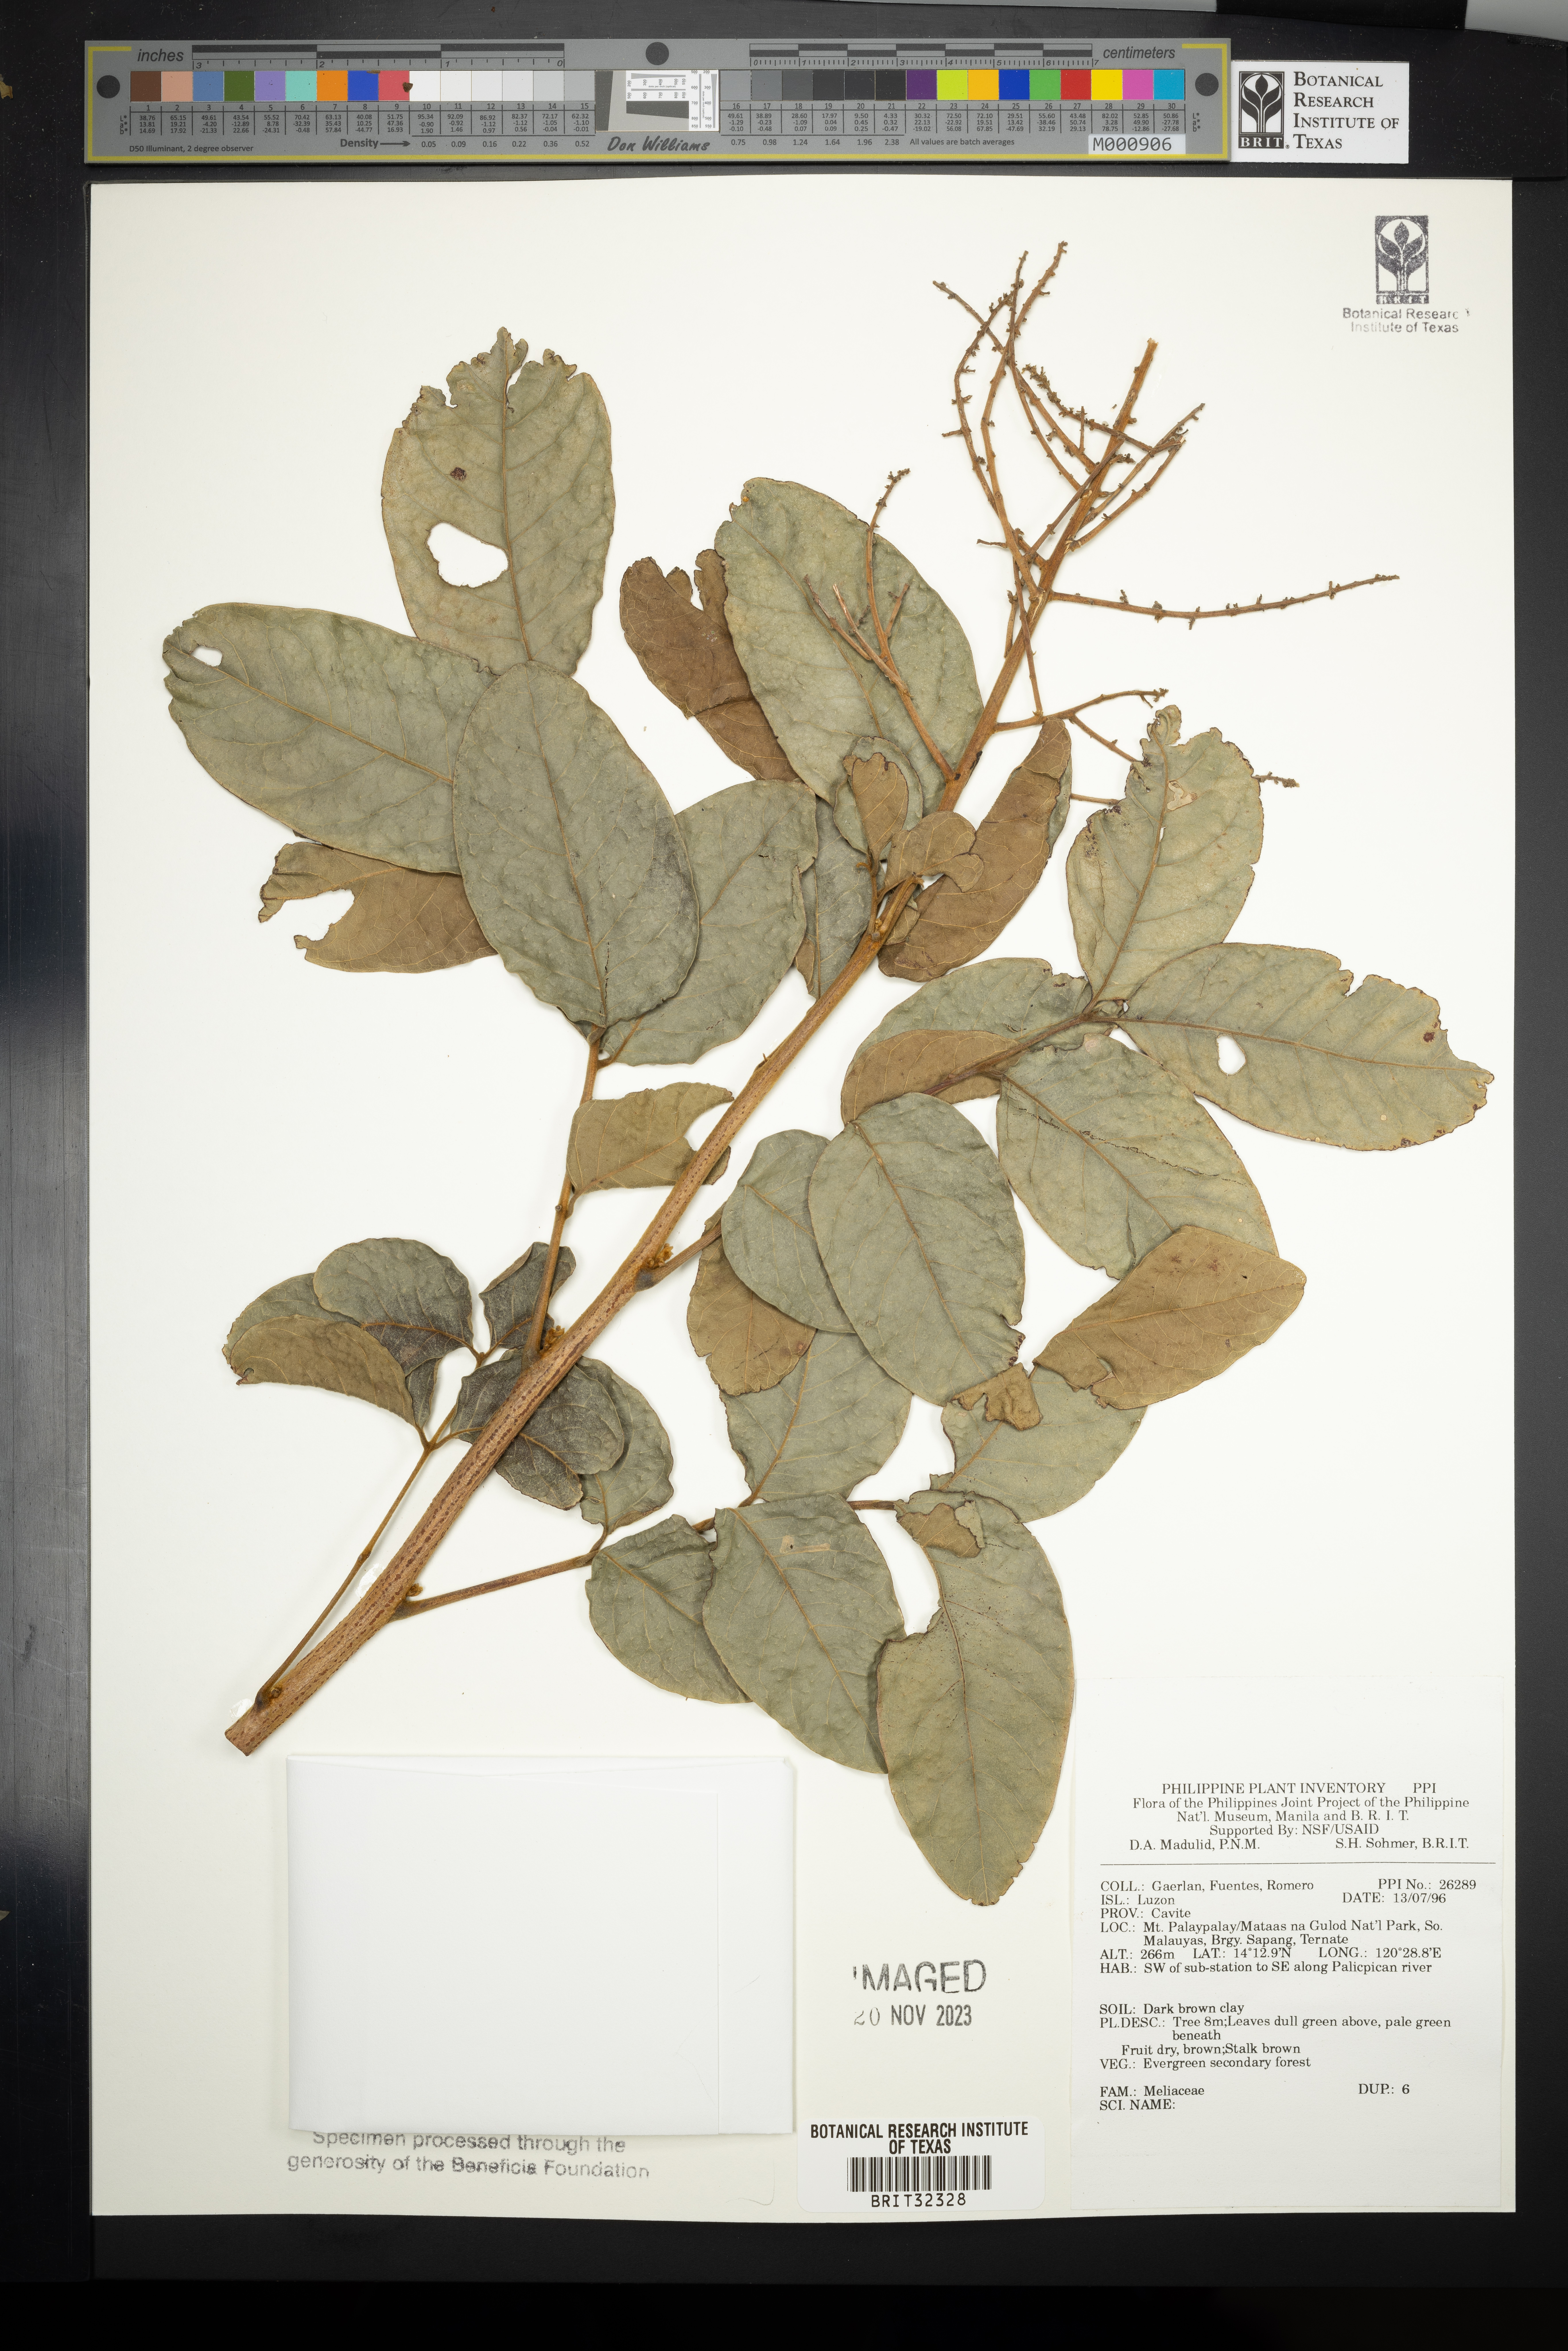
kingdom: Plantae
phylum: Tracheophyta
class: Magnoliopsida
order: Sapindales
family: Meliaceae
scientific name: Meliaceae
